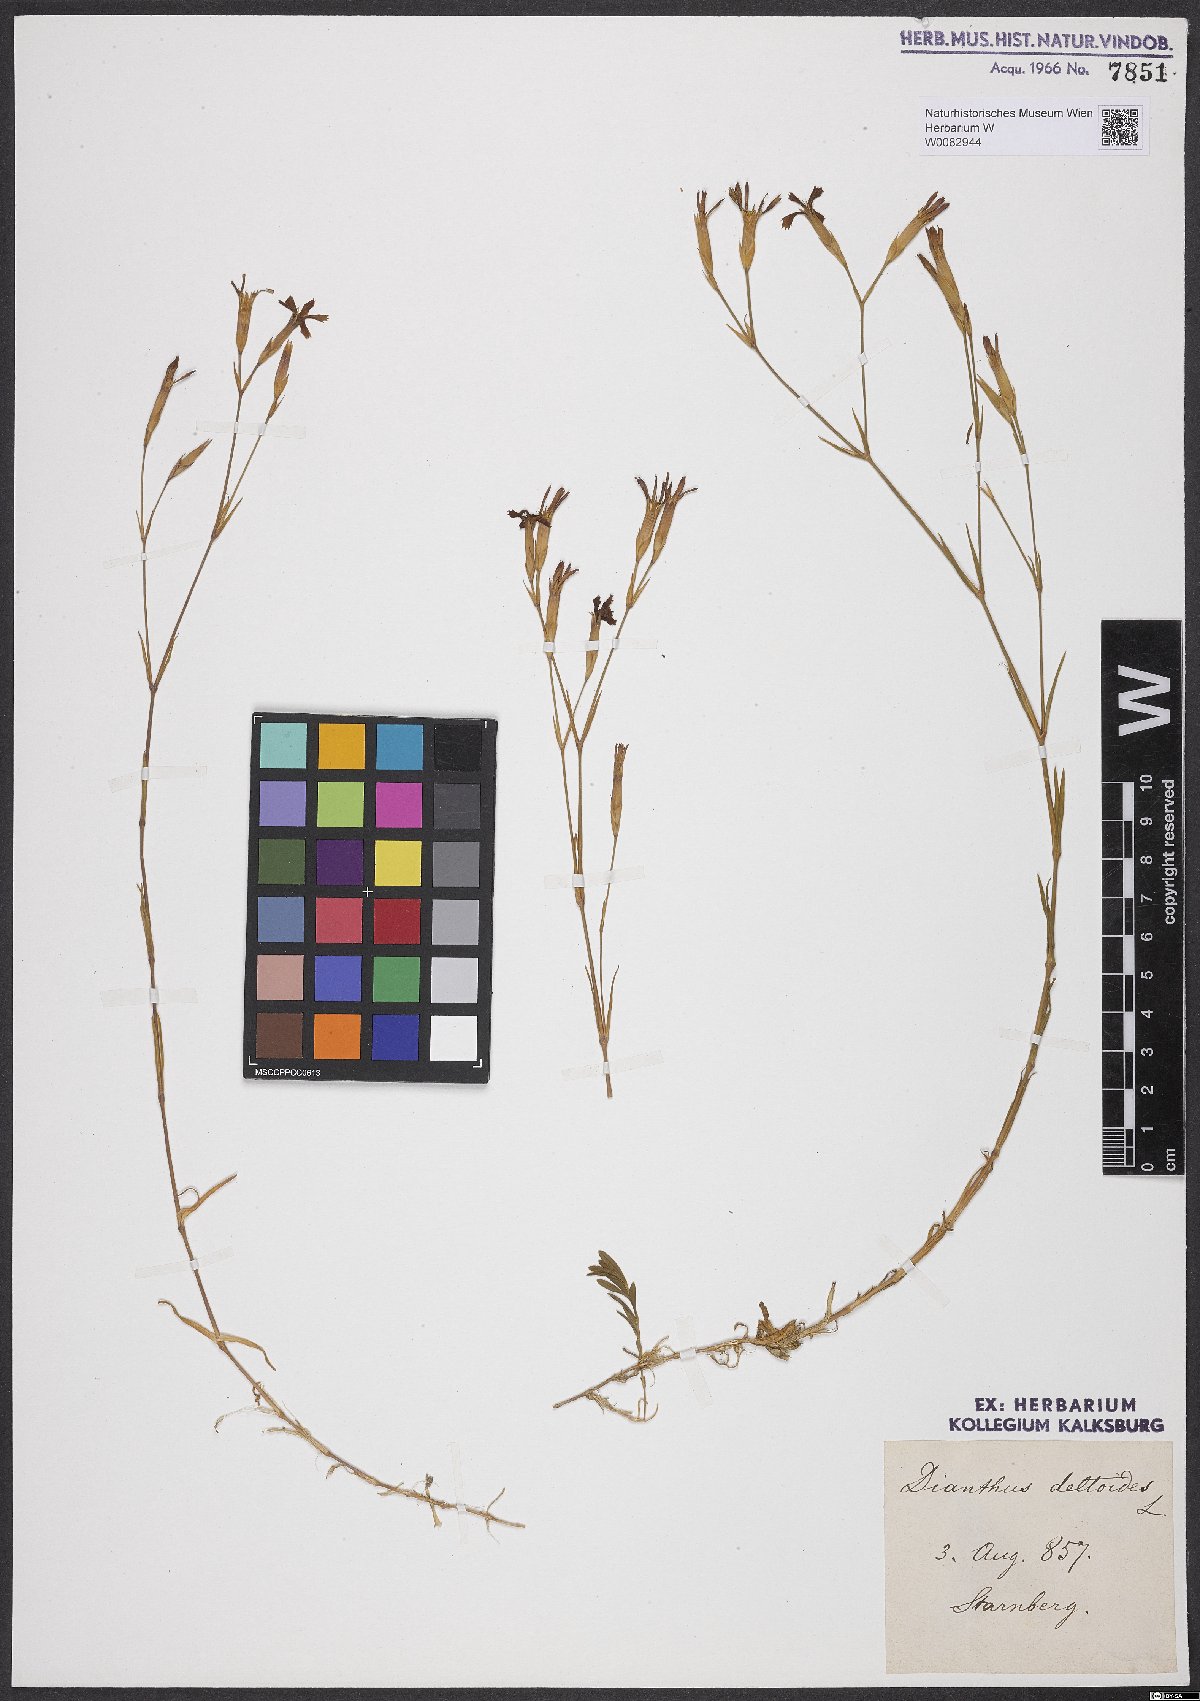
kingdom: Plantae
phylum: Tracheophyta
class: Magnoliopsida
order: Caryophyllales
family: Caryophyllaceae
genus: Dianthus
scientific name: Dianthus deltoides
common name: Maiden pink
